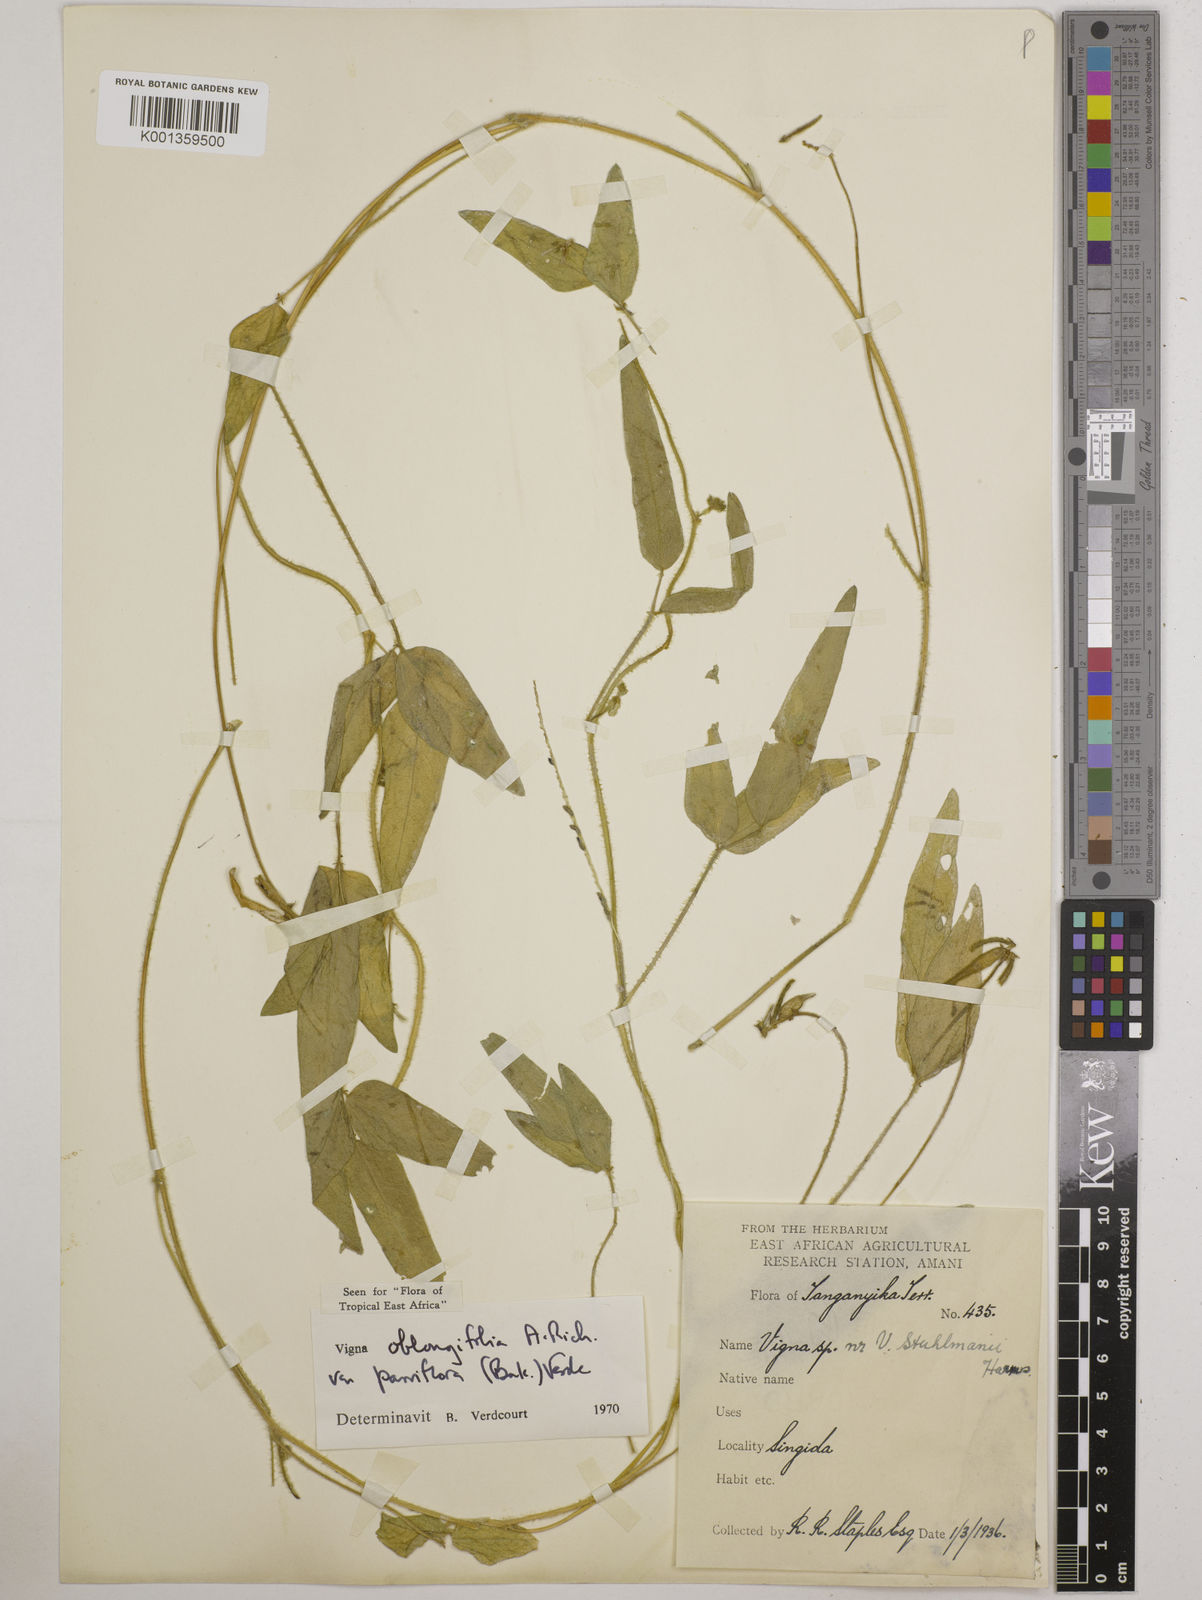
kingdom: Plantae
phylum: Tracheophyta
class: Magnoliopsida
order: Fabales
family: Fabaceae
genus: Vigna
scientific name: Vigna oblongifolia
